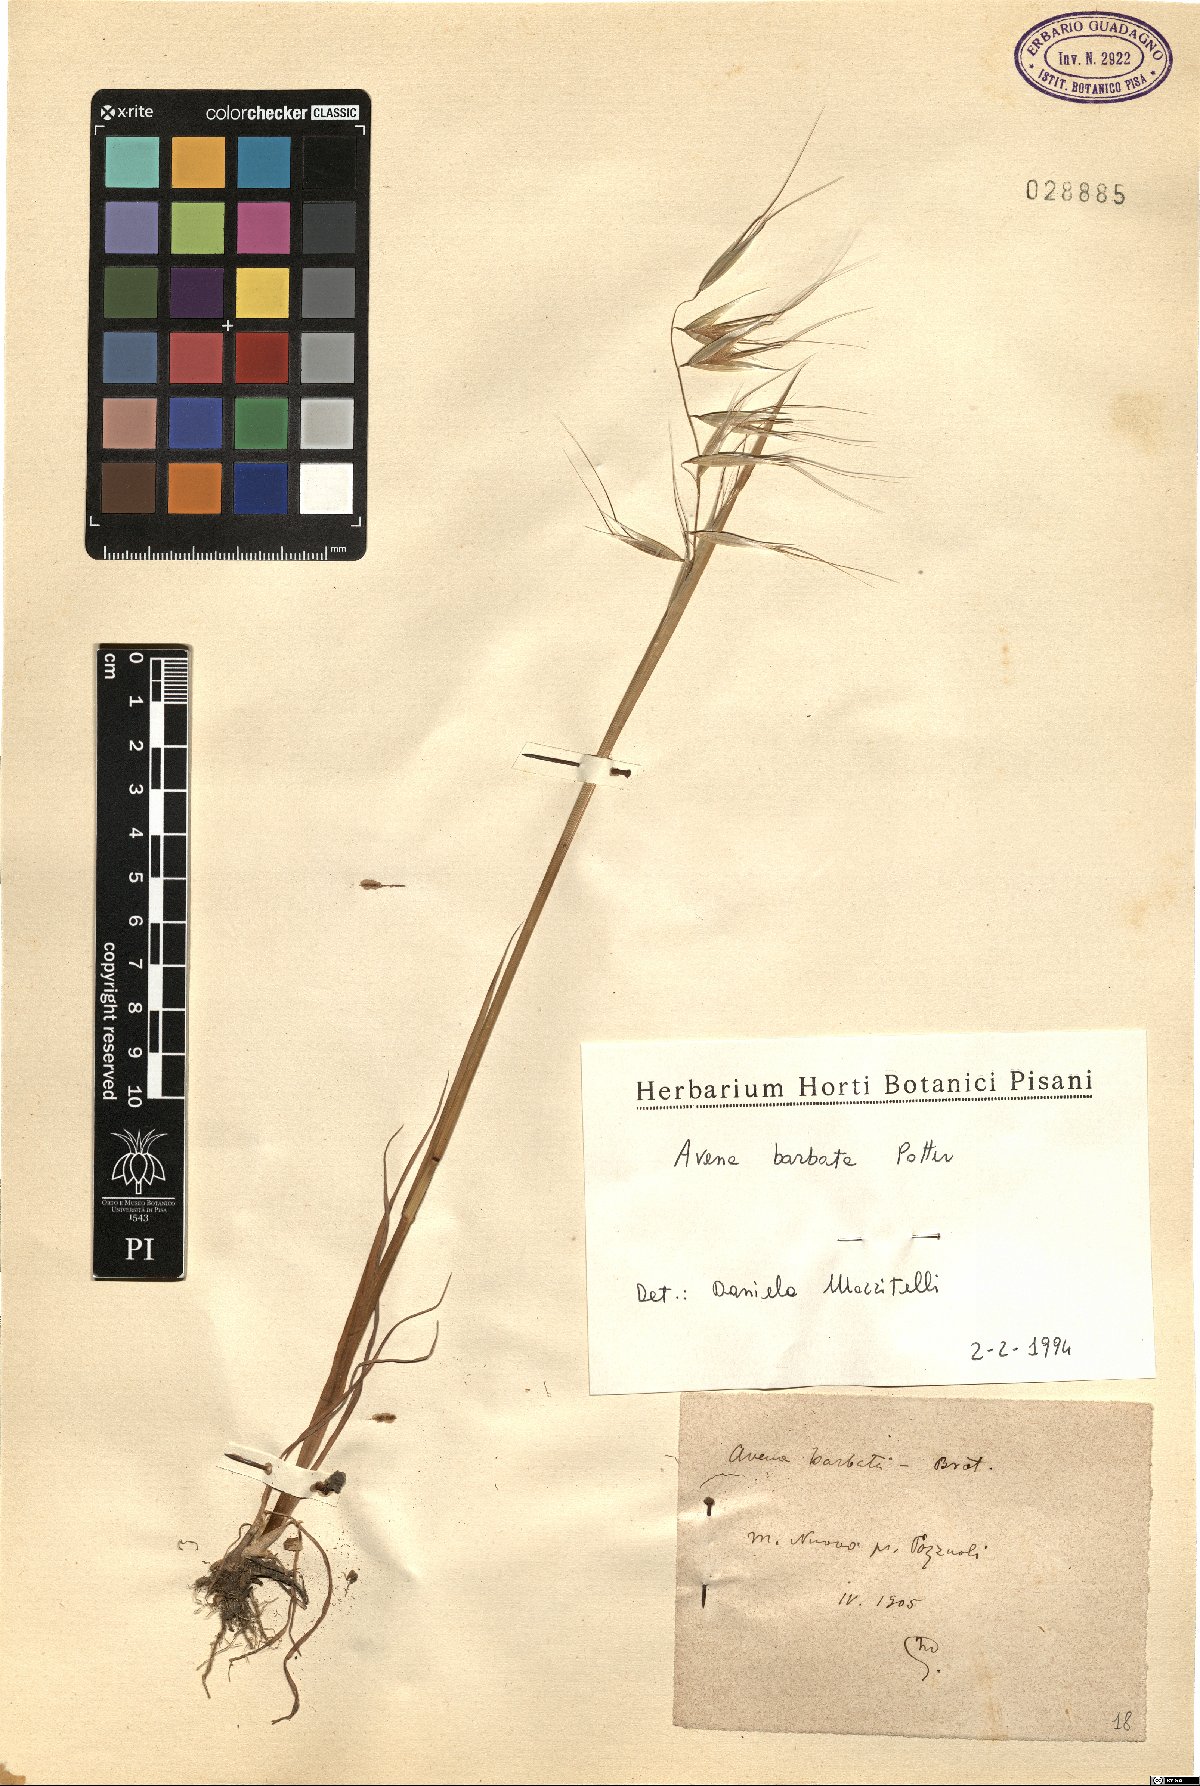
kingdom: Plantae
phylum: Tracheophyta
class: Liliopsida
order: Poales
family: Poaceae
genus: Avena
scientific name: Avena barbata
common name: Slender oat
